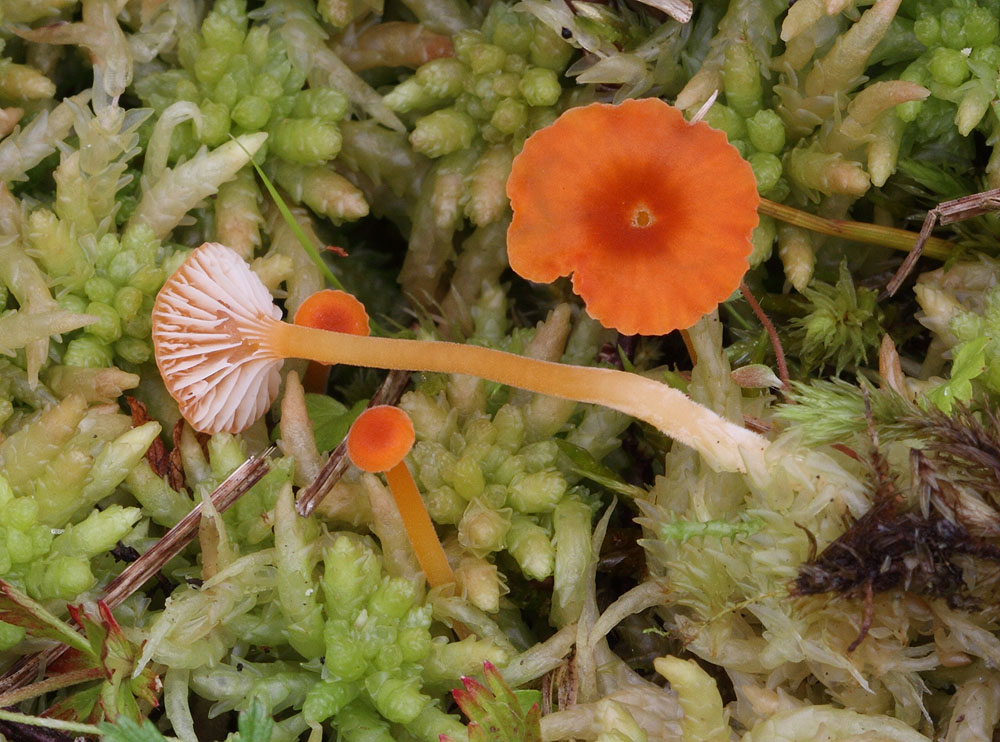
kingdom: Fungi
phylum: Basidiomycota
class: Agaricomycetes
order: Hymenochaetales
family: Rickenellaceae
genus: Rickenella
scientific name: Rickenella fibula
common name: orange mosnavlehat
